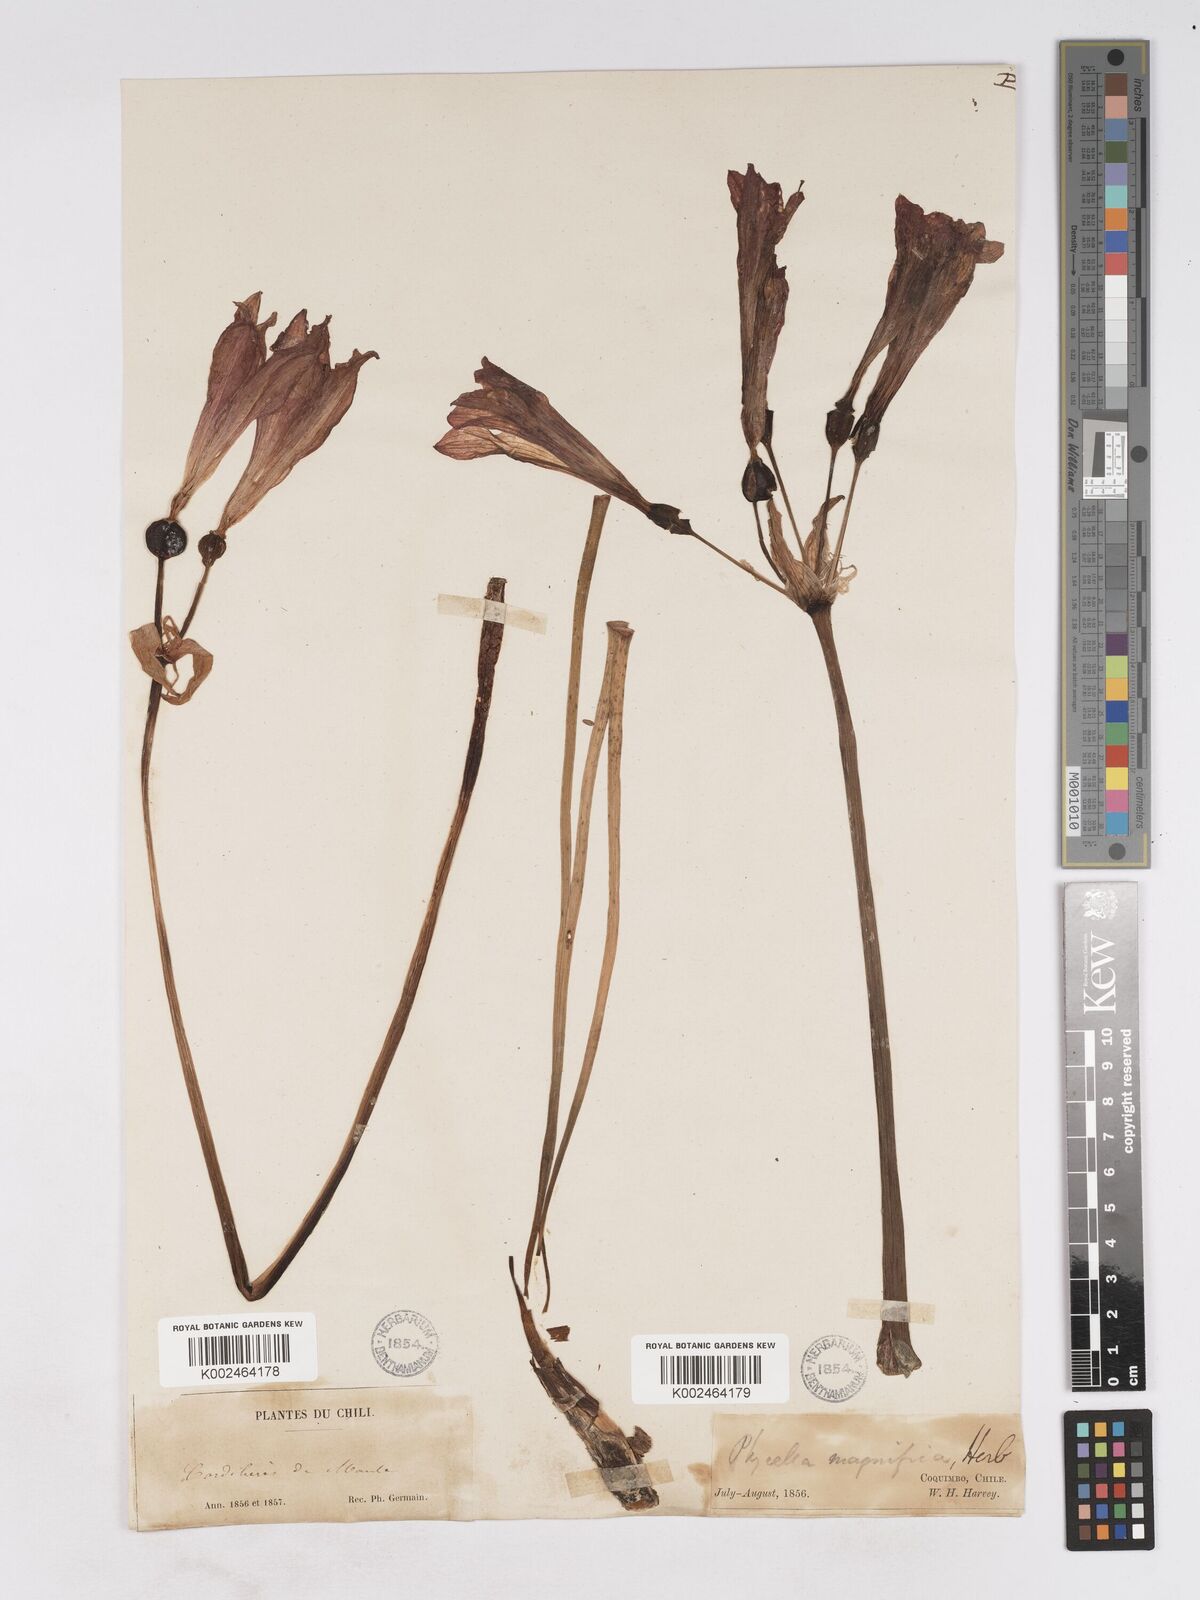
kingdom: Plantae
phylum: Tracheophyta
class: Liliopsida
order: Asparagales
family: Amaryllidaceae
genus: Phycella
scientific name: Phycella cyrtanthoides
